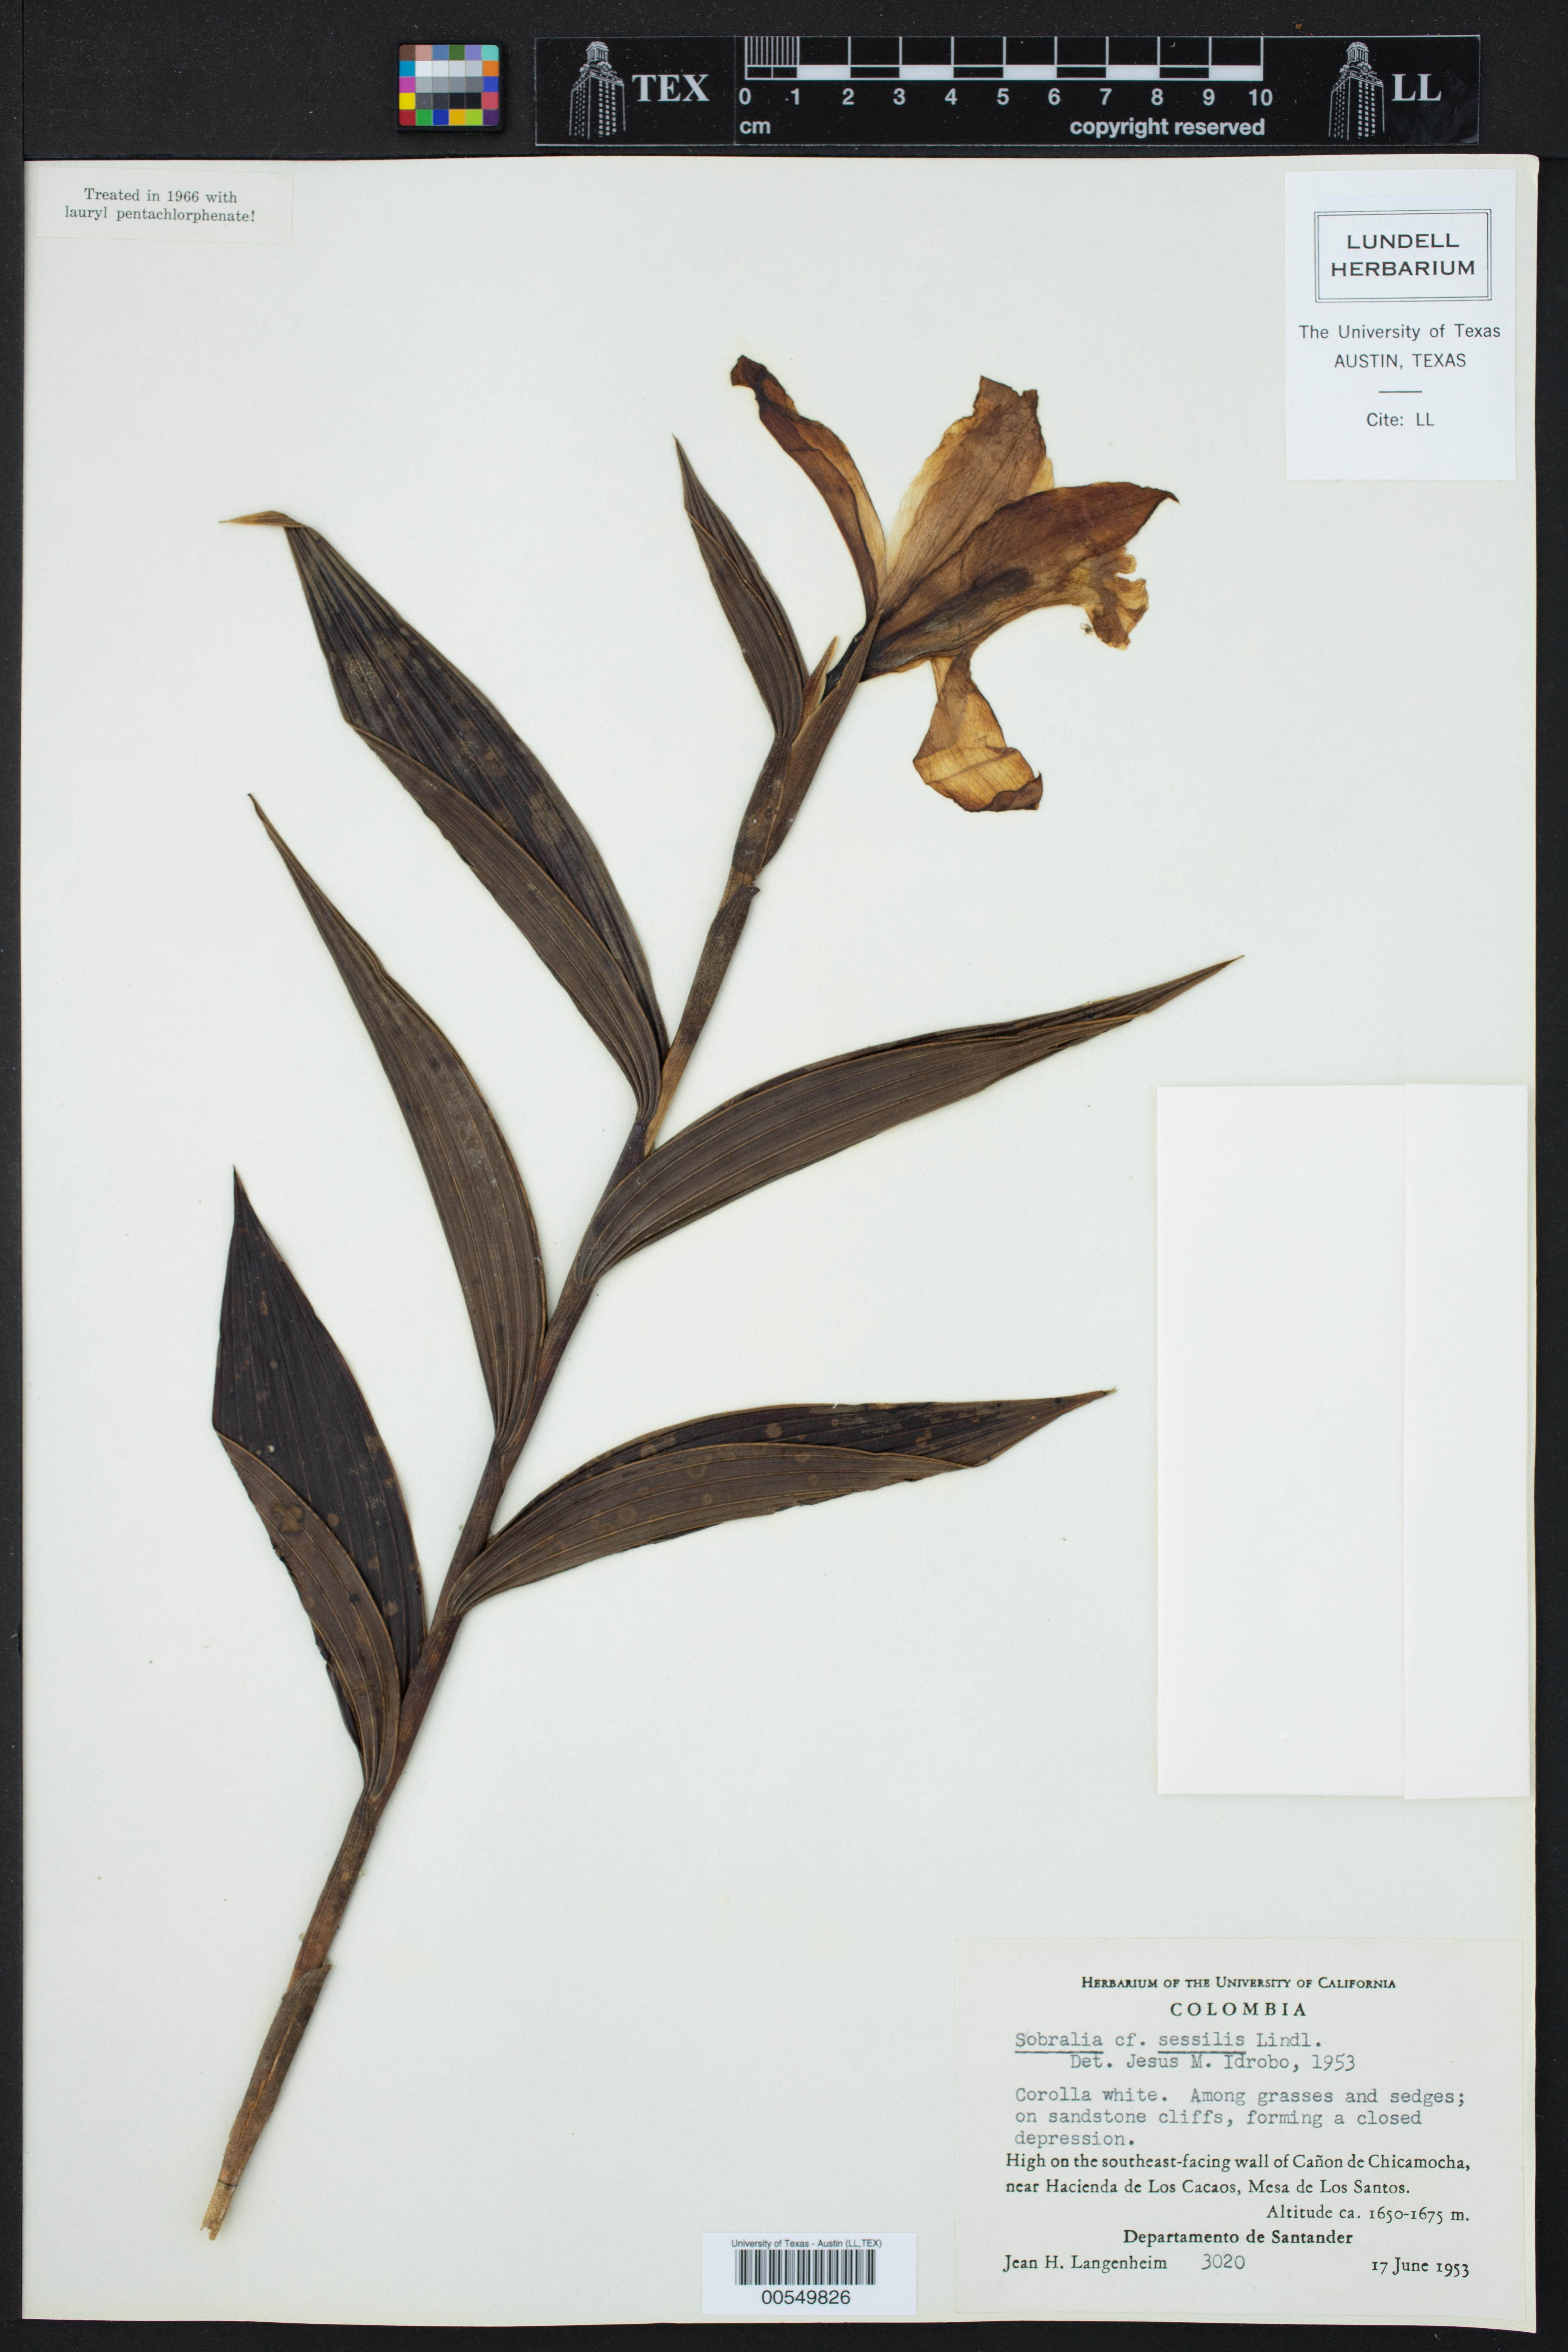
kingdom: Plantae
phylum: Tracheophyta
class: Liliopsida
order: Asparagales
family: Orchidaceae
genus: Sobralia
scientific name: Sobralia sessilis
